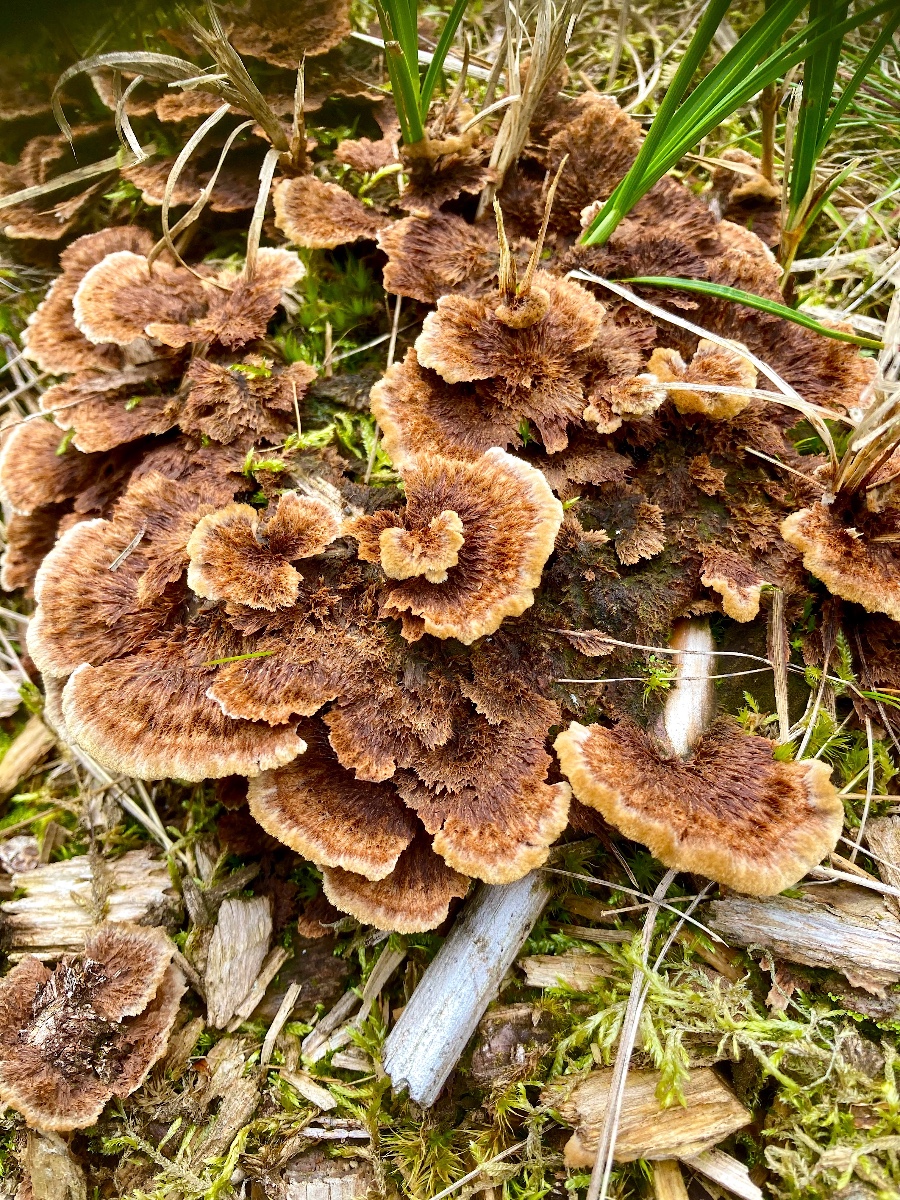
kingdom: Fungi
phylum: Basidiomycota
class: Agaricomycetes
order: Thelephorales
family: Thelephoraceae
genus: Thelephora
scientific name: Thelephora terrestris
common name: fliget frynsesvamp
